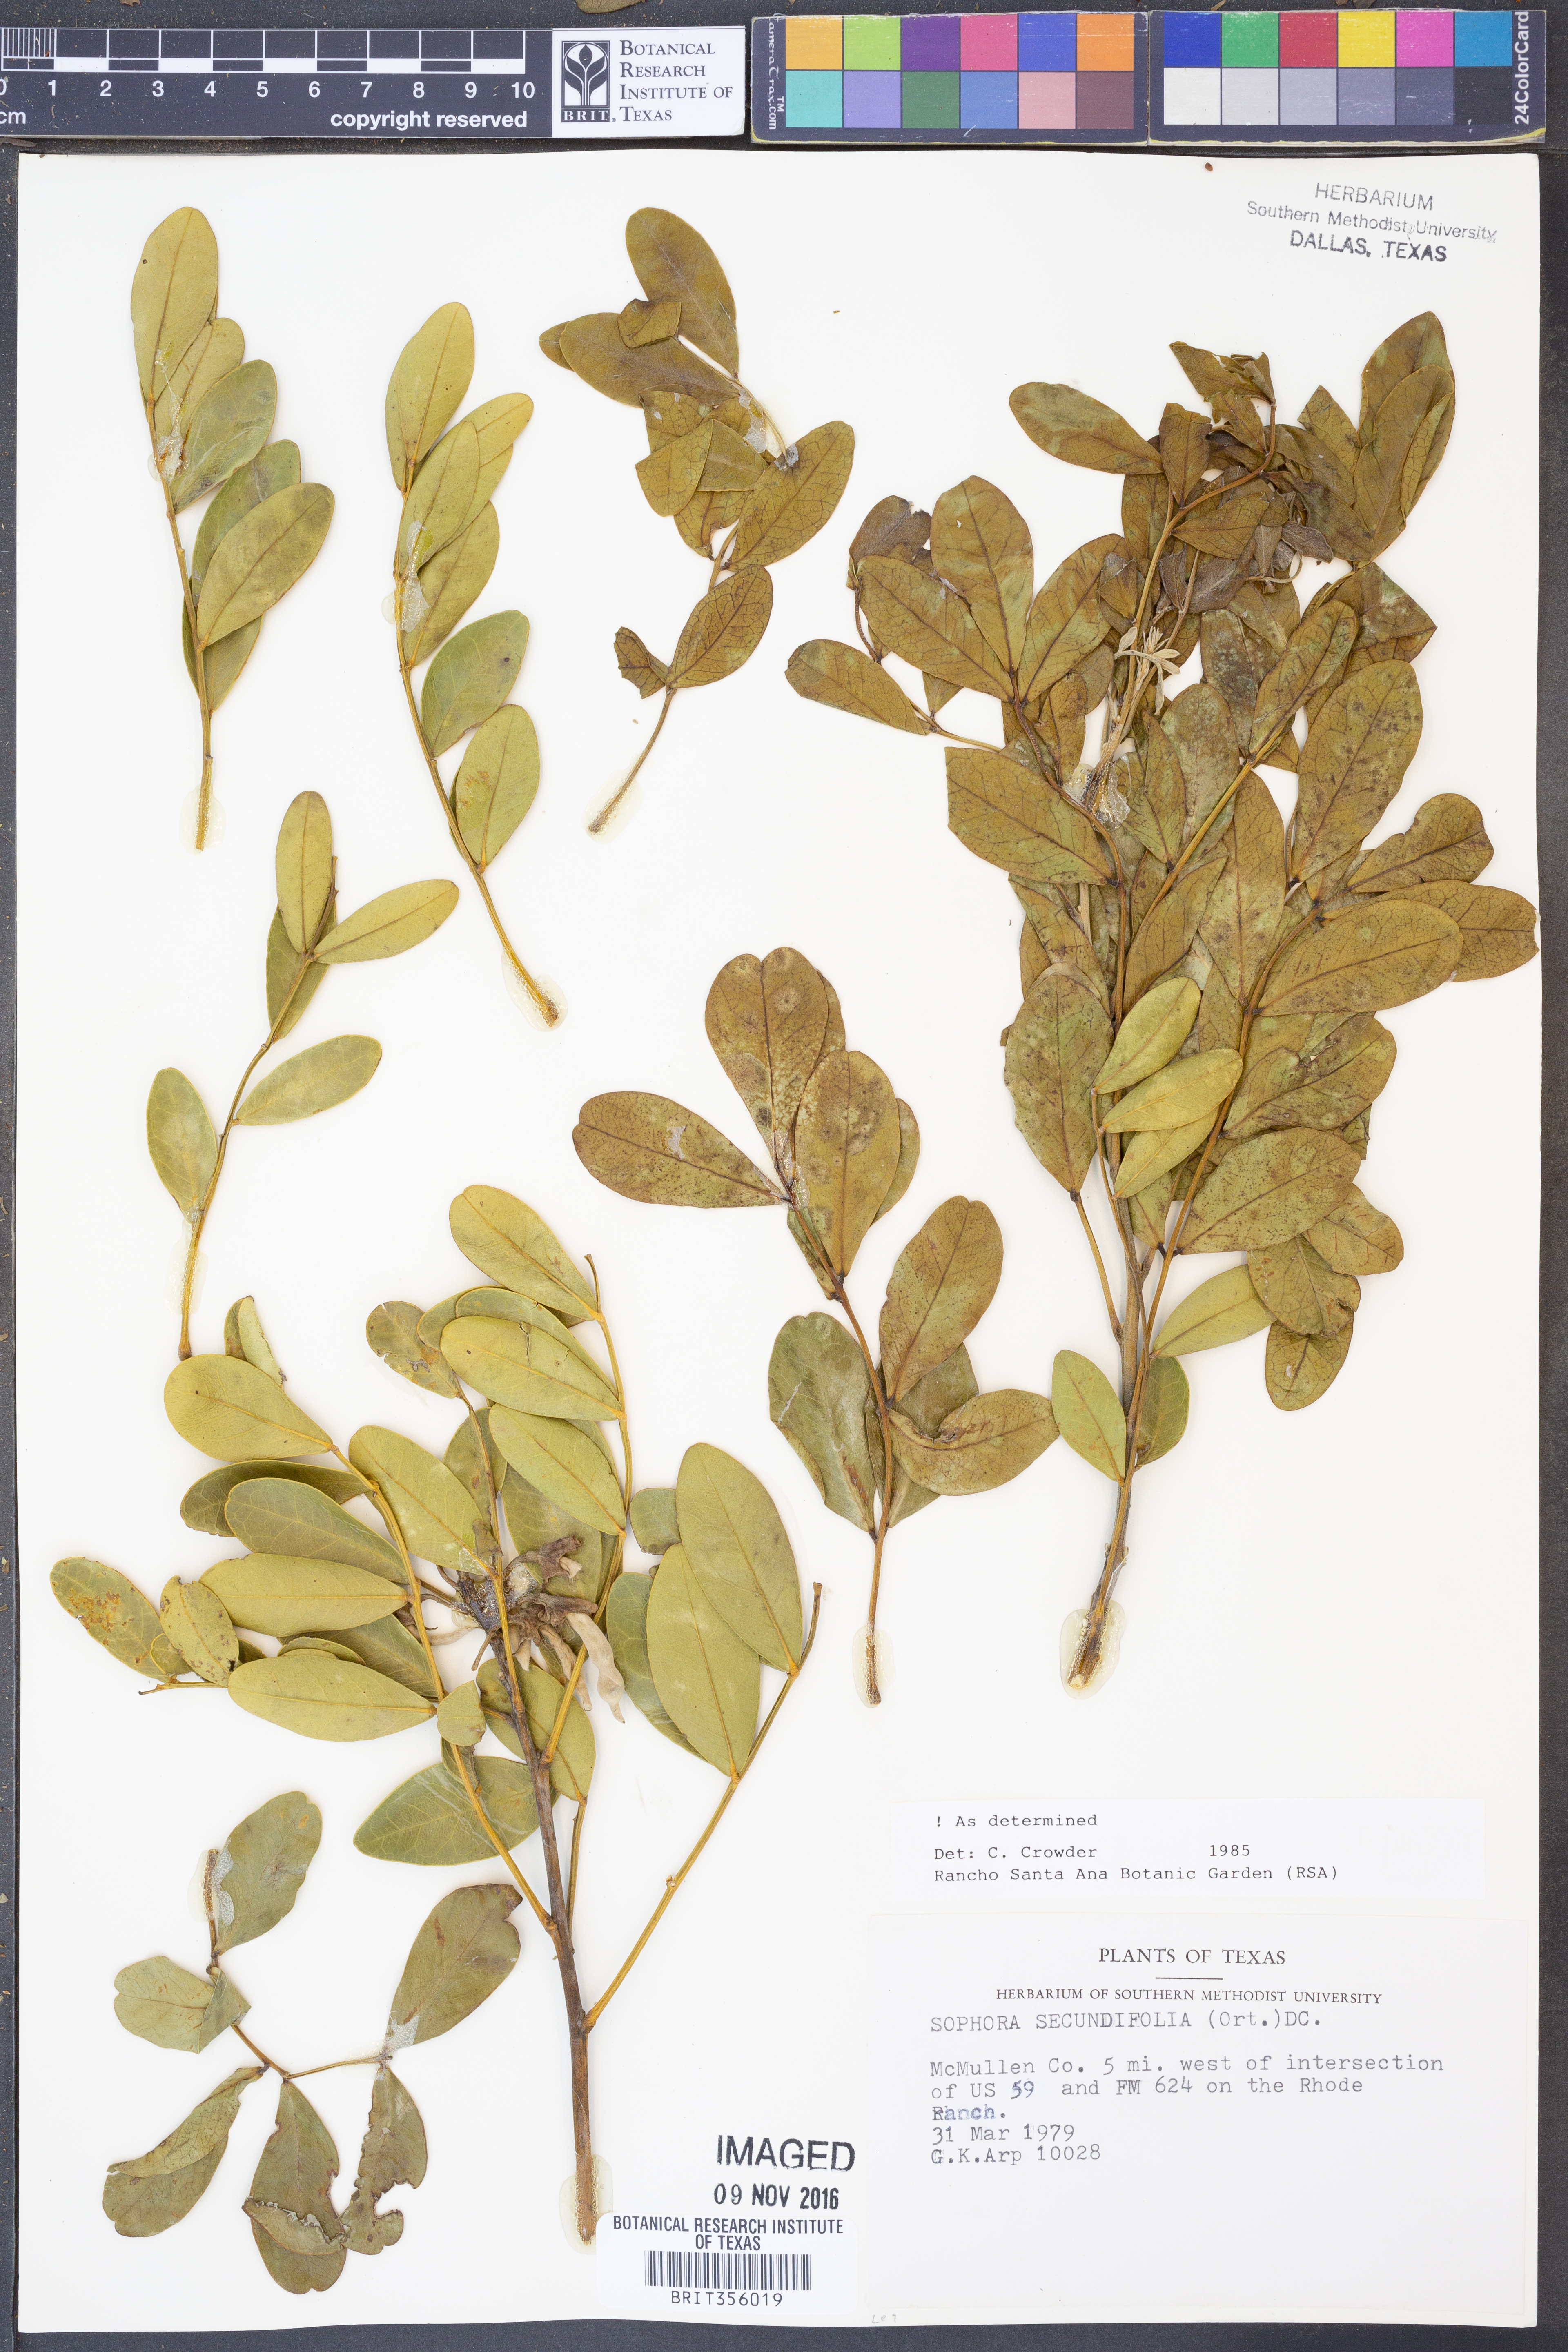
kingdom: Plantae
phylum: Tracheophyta
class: Magnoliopsida
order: Fabales
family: Fabaceae
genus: Dermatophyllum
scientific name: Dermatophyllum secundiflorum
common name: Texas-mountain-laurel
